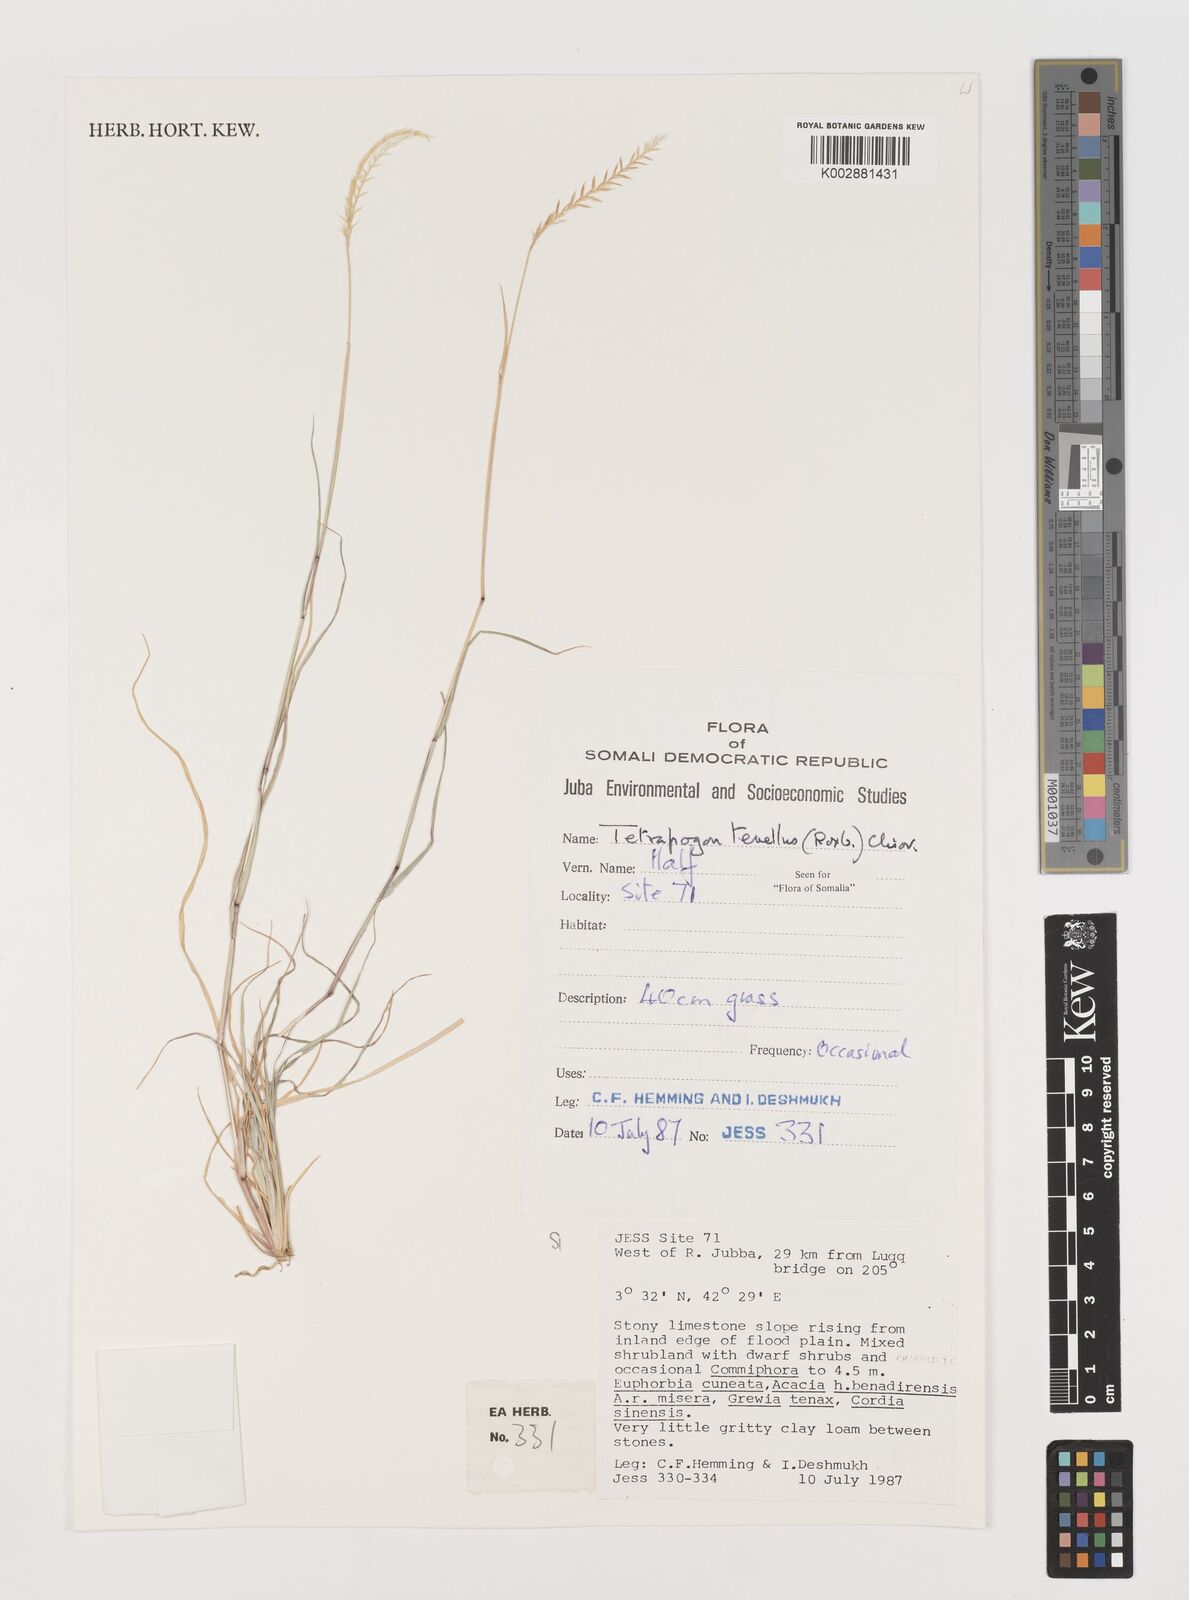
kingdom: Plantae
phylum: Tracheophyta
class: Liliopsida
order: Poales
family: Poaceae
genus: Tetrapogon
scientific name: Tetrapogon tenellus
